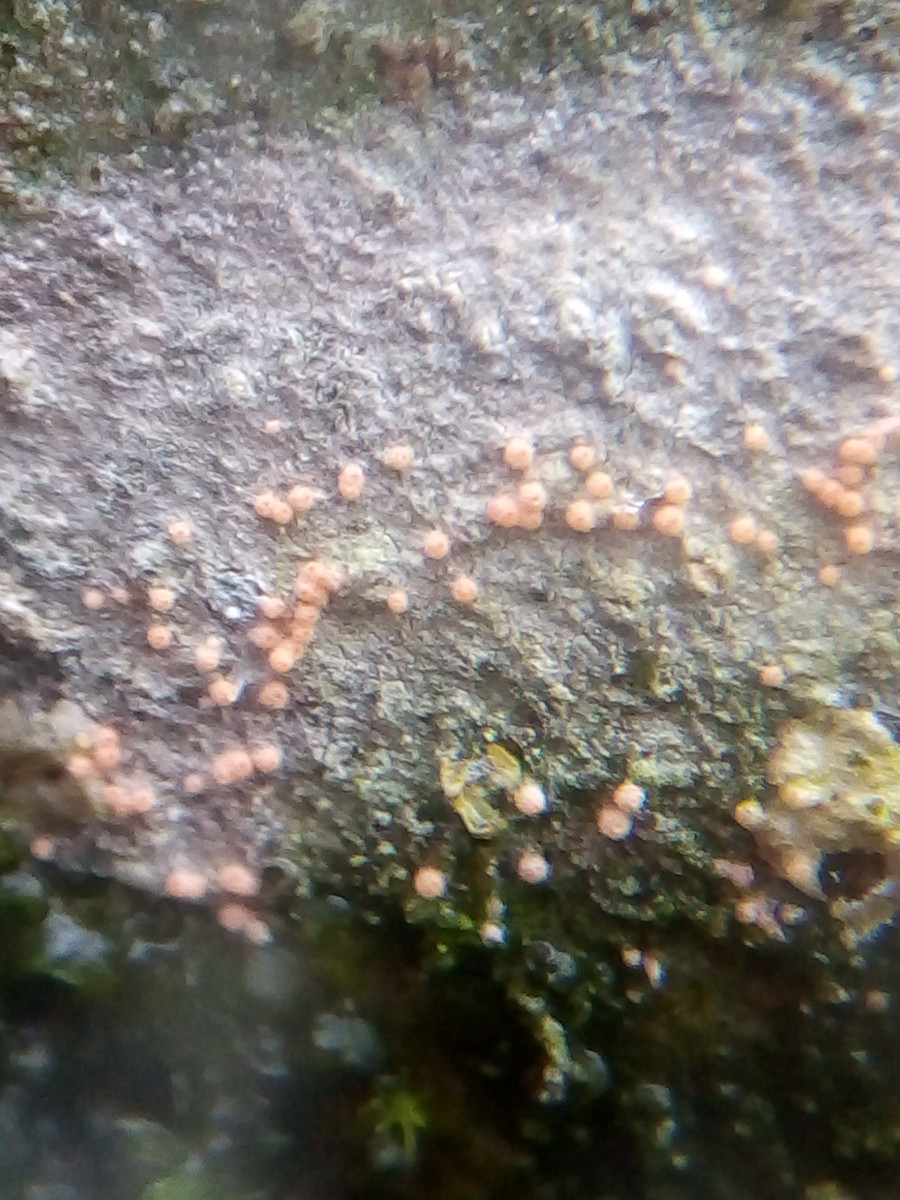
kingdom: Fungi
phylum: Ascomycota
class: Sordariomycetes
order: Hypocreales
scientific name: Hypocreales
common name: kødkerneordenen
